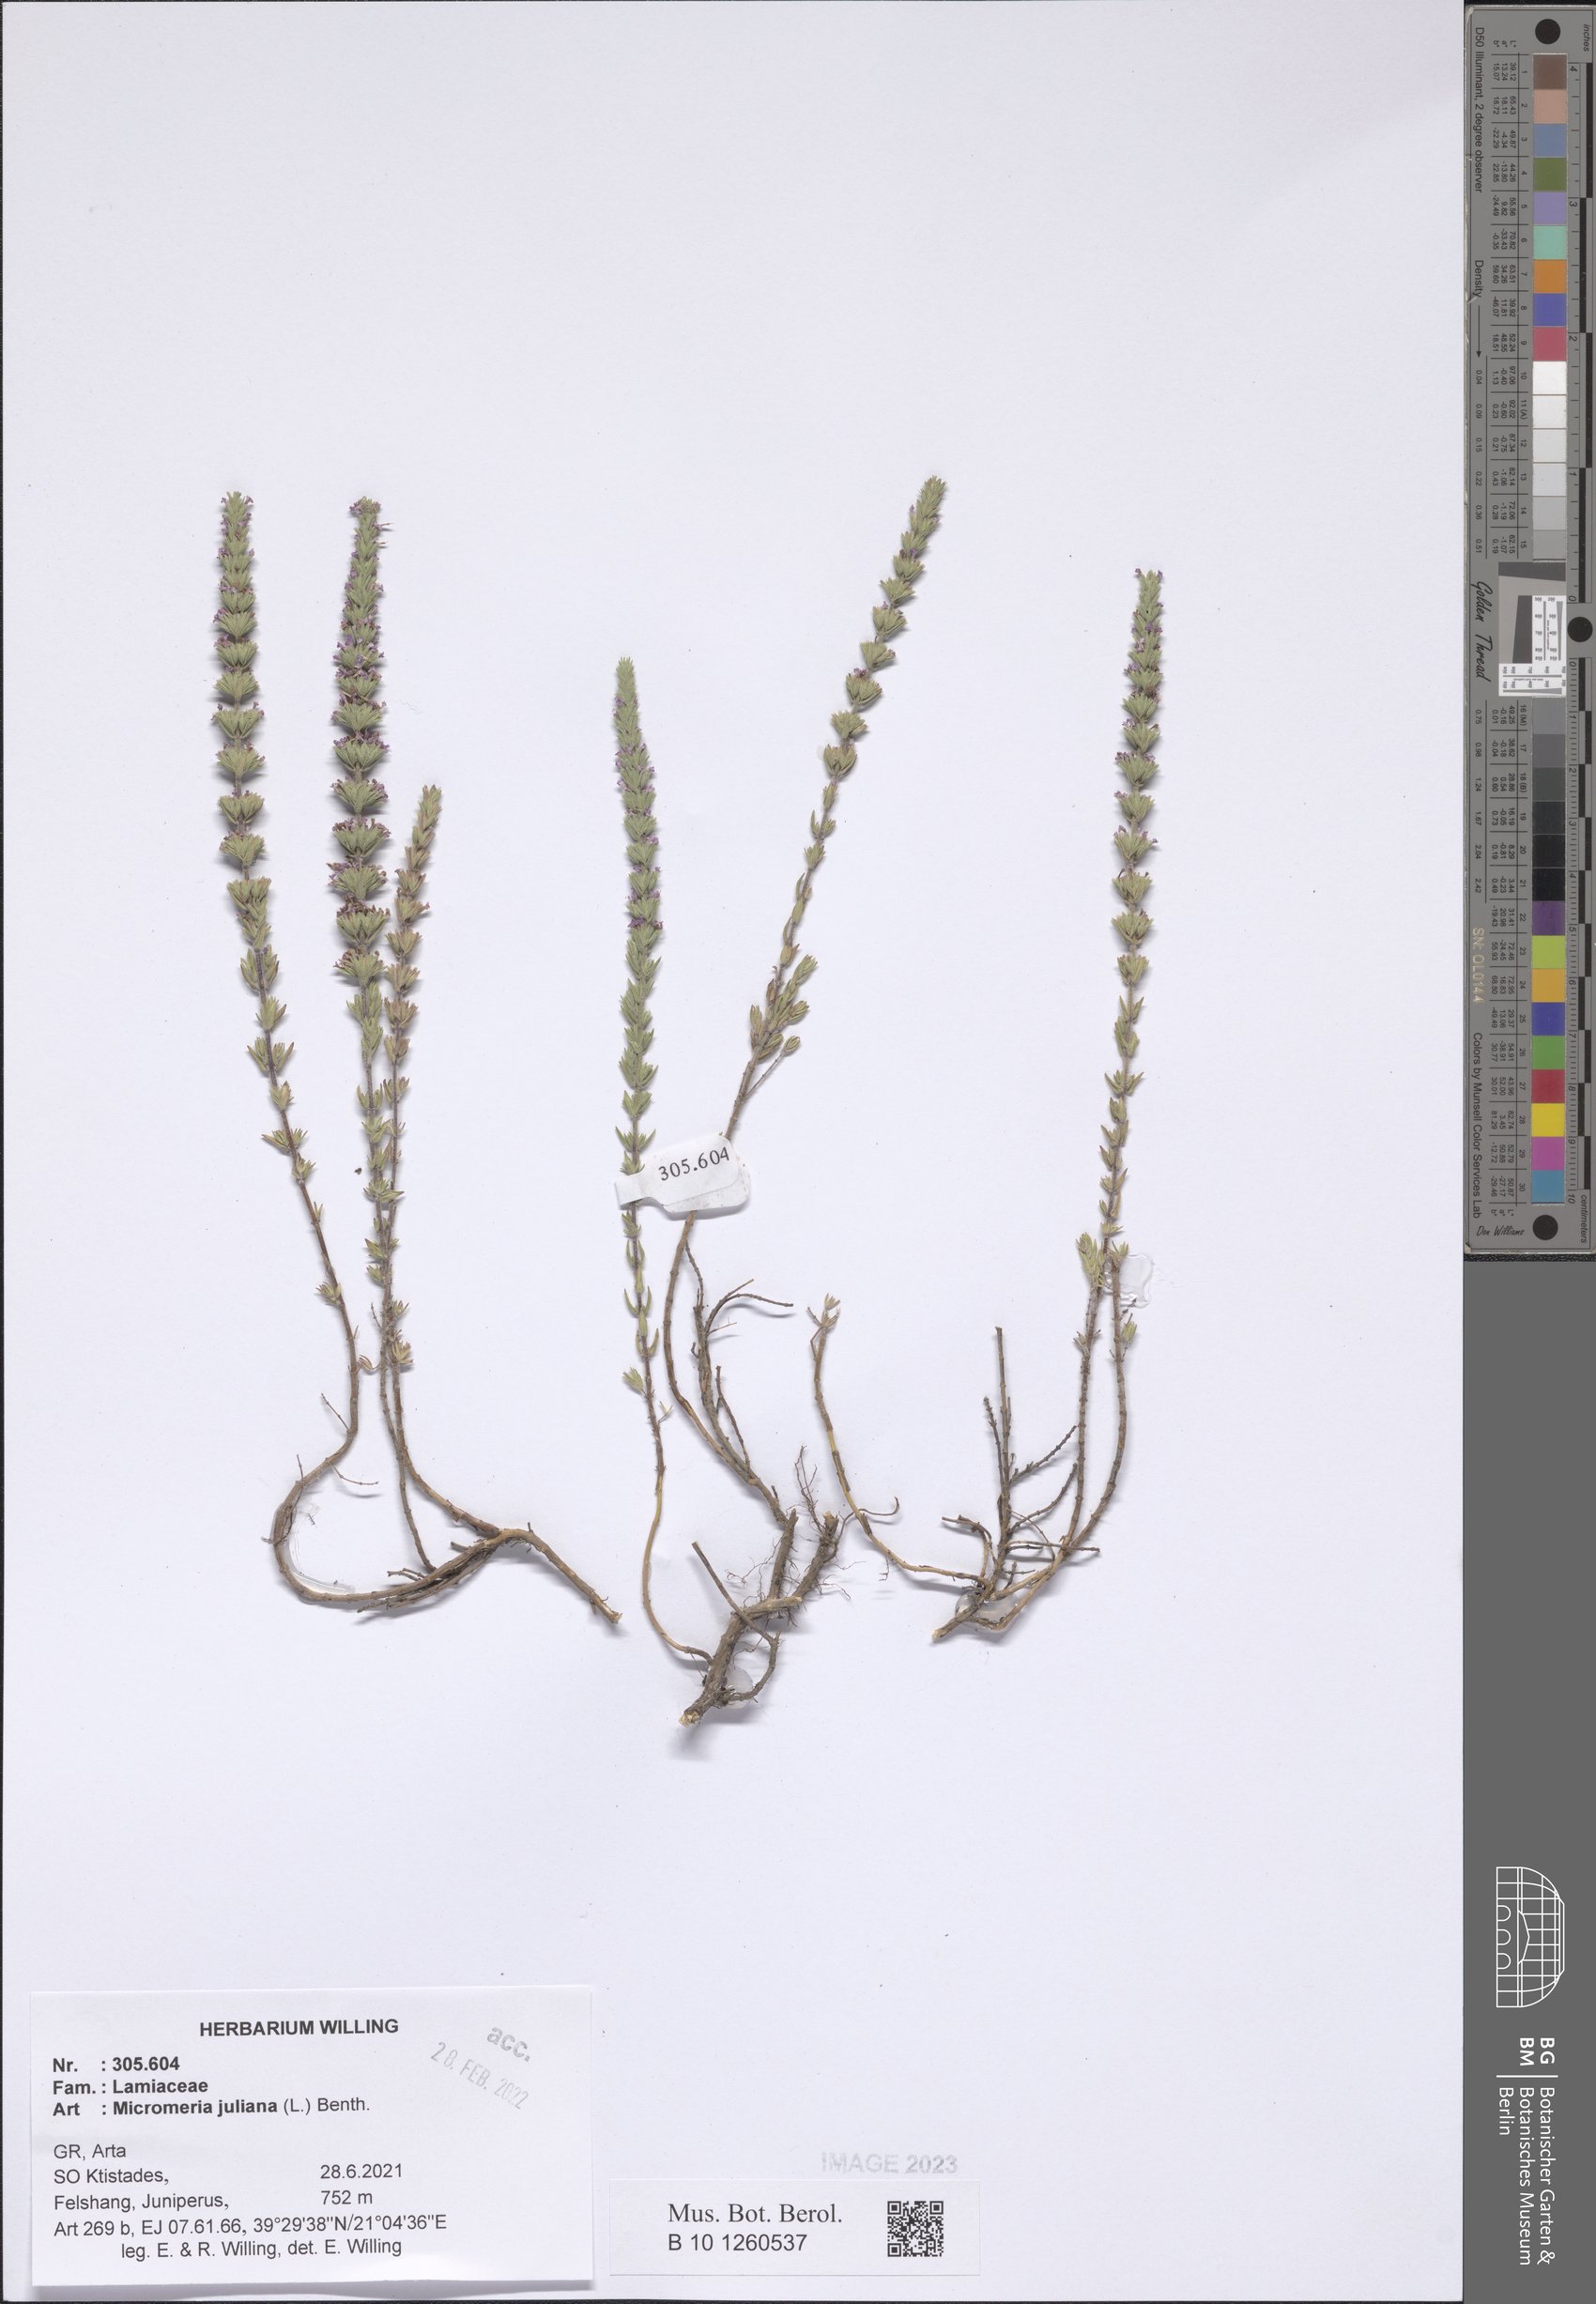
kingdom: Plantae
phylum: Tracheophyta
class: Magnoliopsida
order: Lamiales
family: Lamiaceae
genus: Micromeria
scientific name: Micromeria juliana
